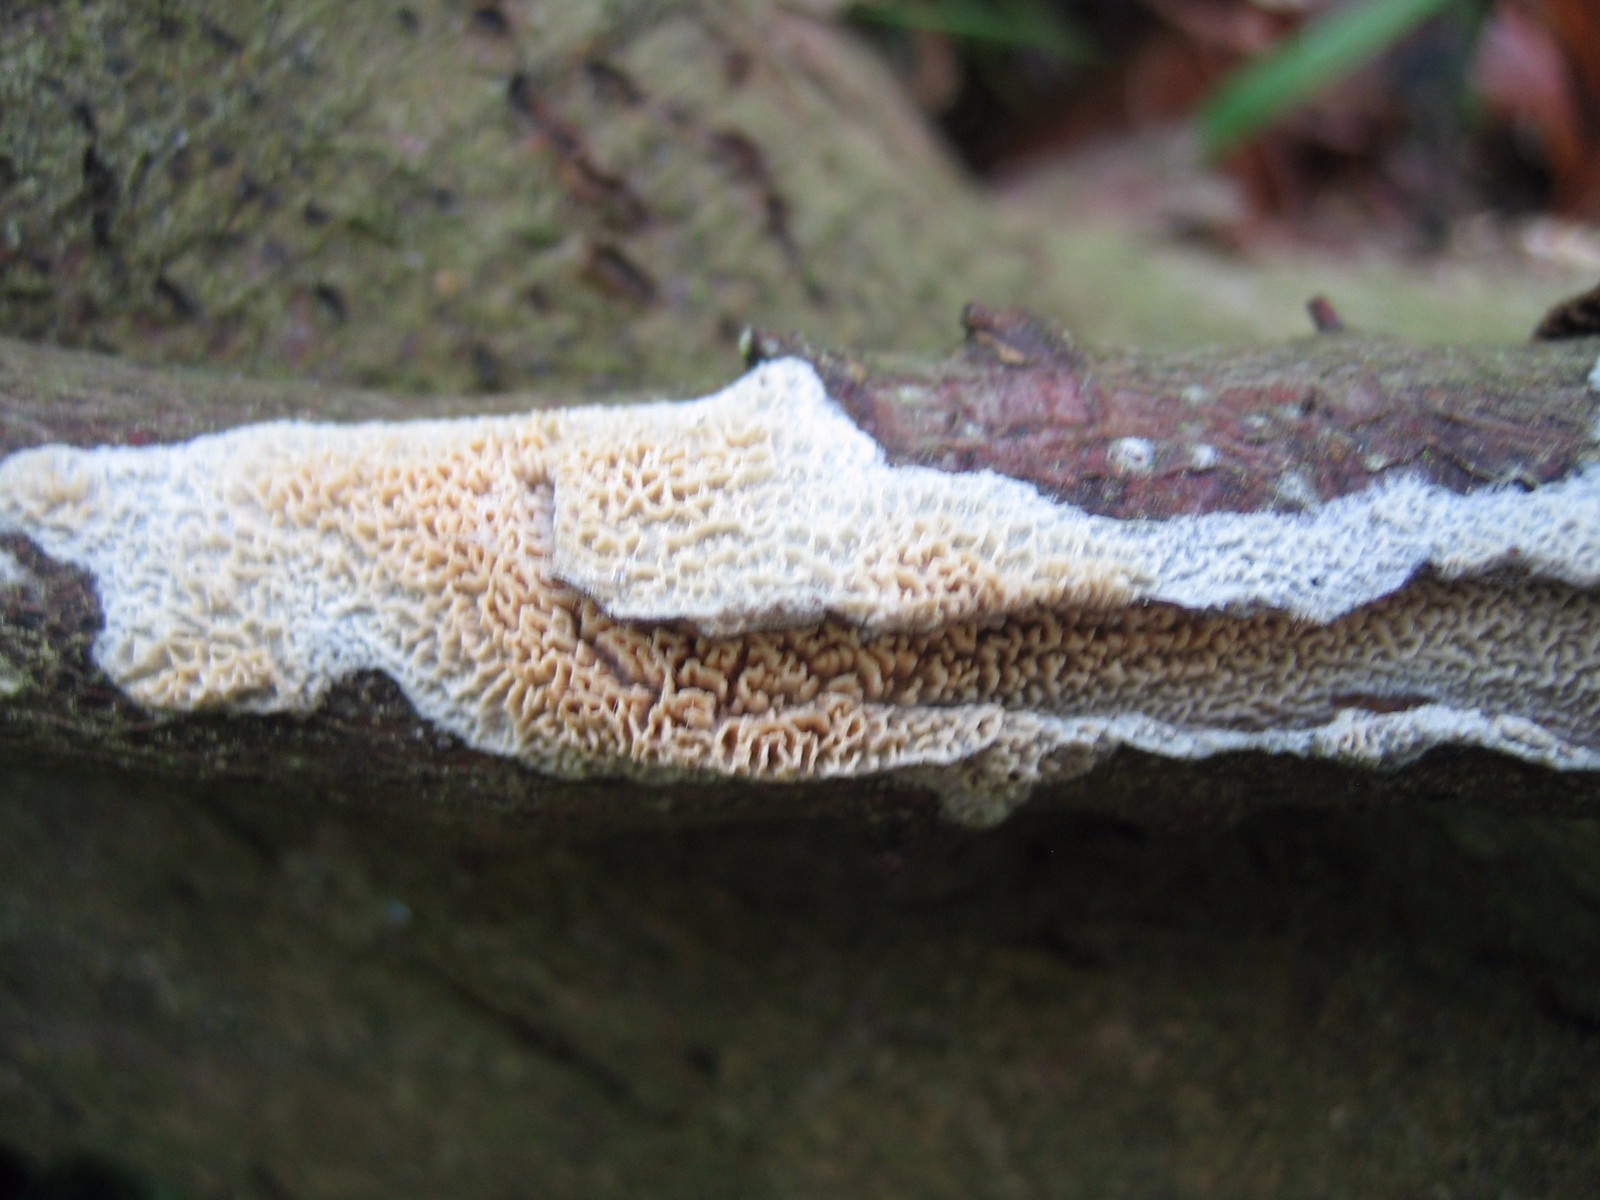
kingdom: Fungi
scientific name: Fungi
